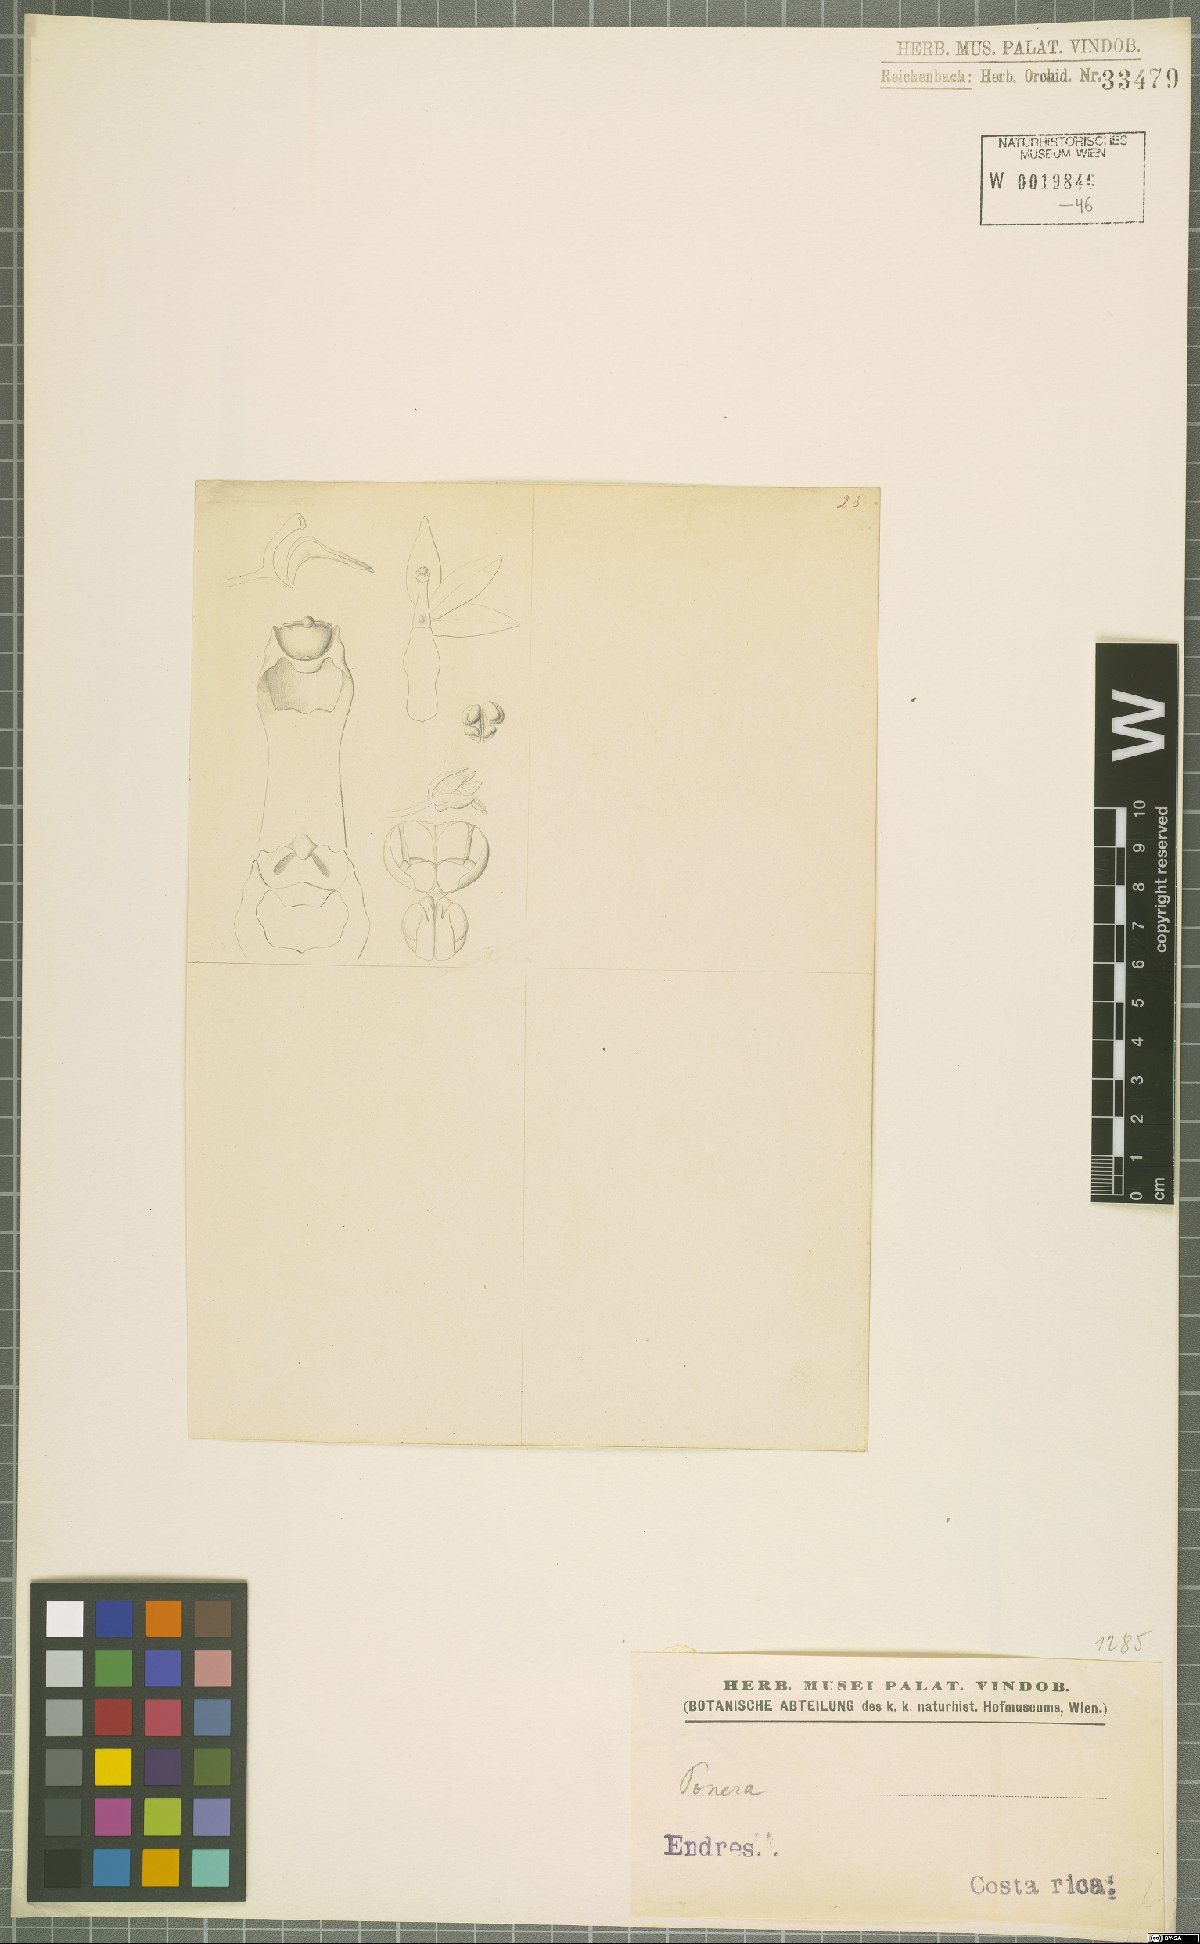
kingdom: Plantae
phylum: Tracheophyta
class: Liliopsida
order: Asparagales
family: Orchidaceae
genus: Ponera
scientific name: Ponera
